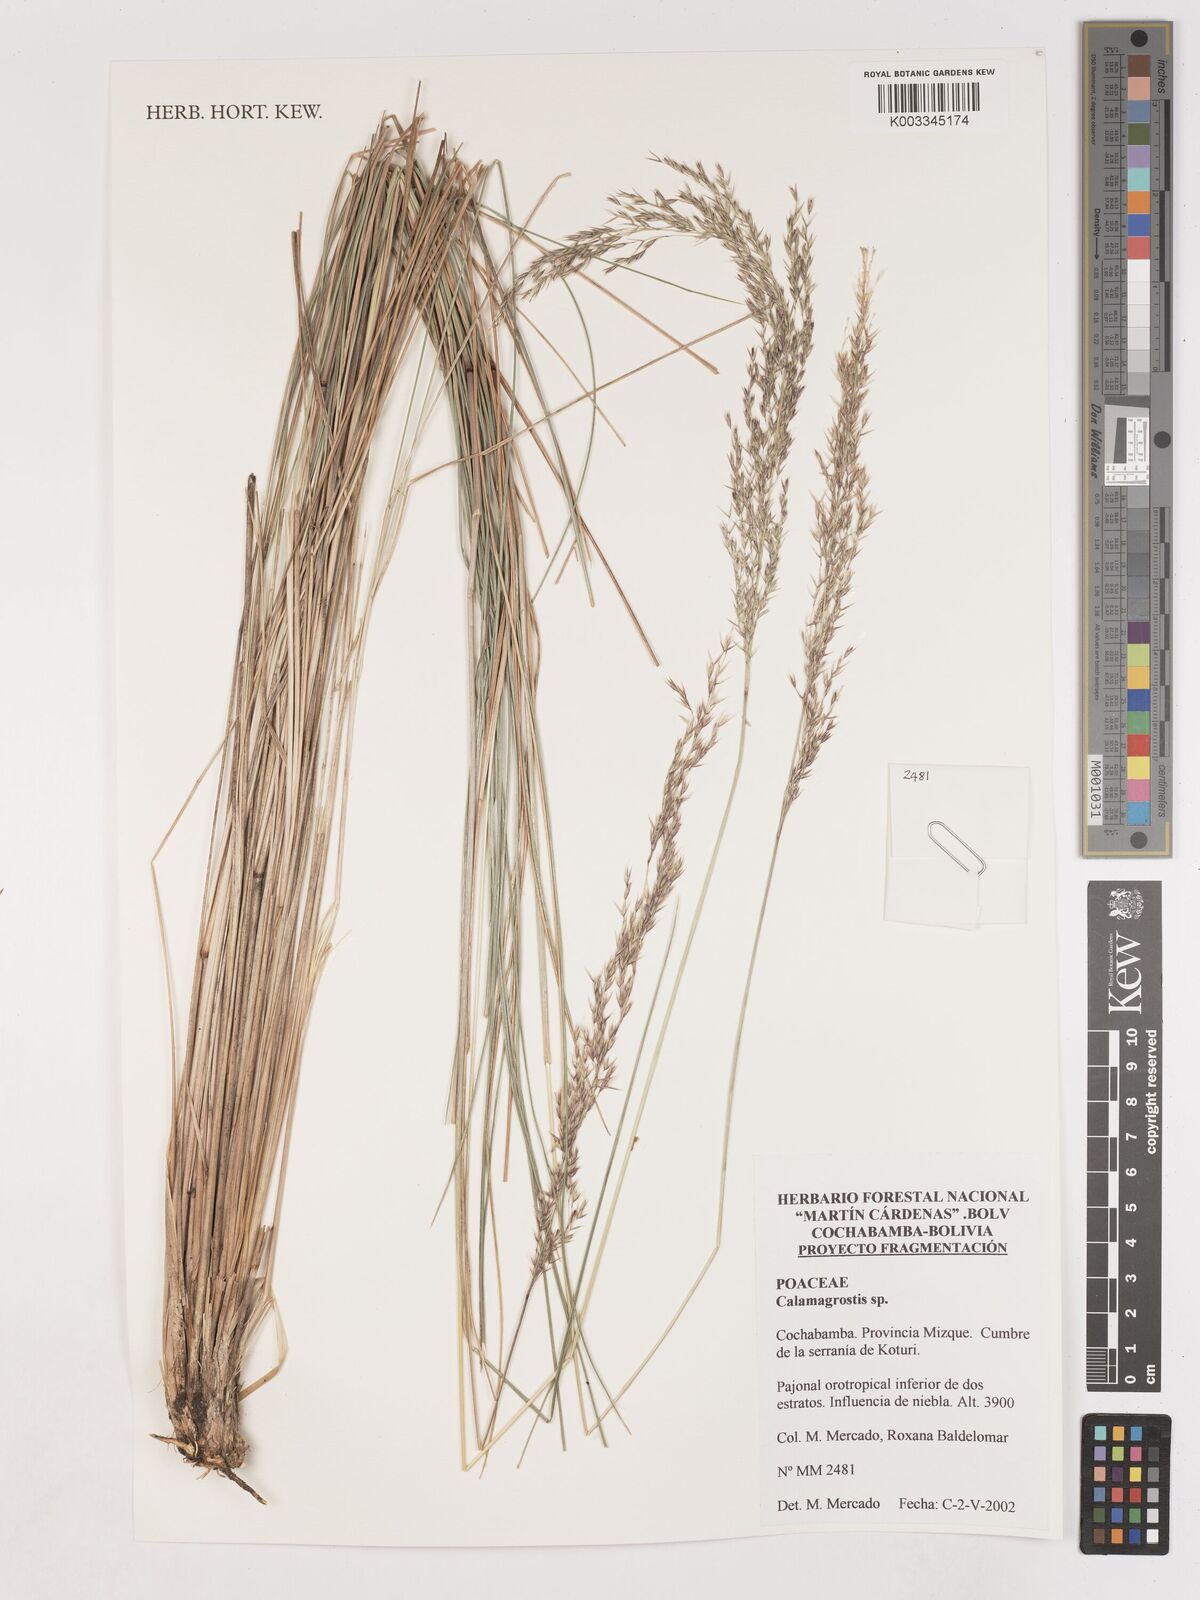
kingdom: Plantae
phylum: Tracheophyta
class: Liliopsida
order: Poales
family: Poaceae
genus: Calamagrostis
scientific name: Calamagrostis
